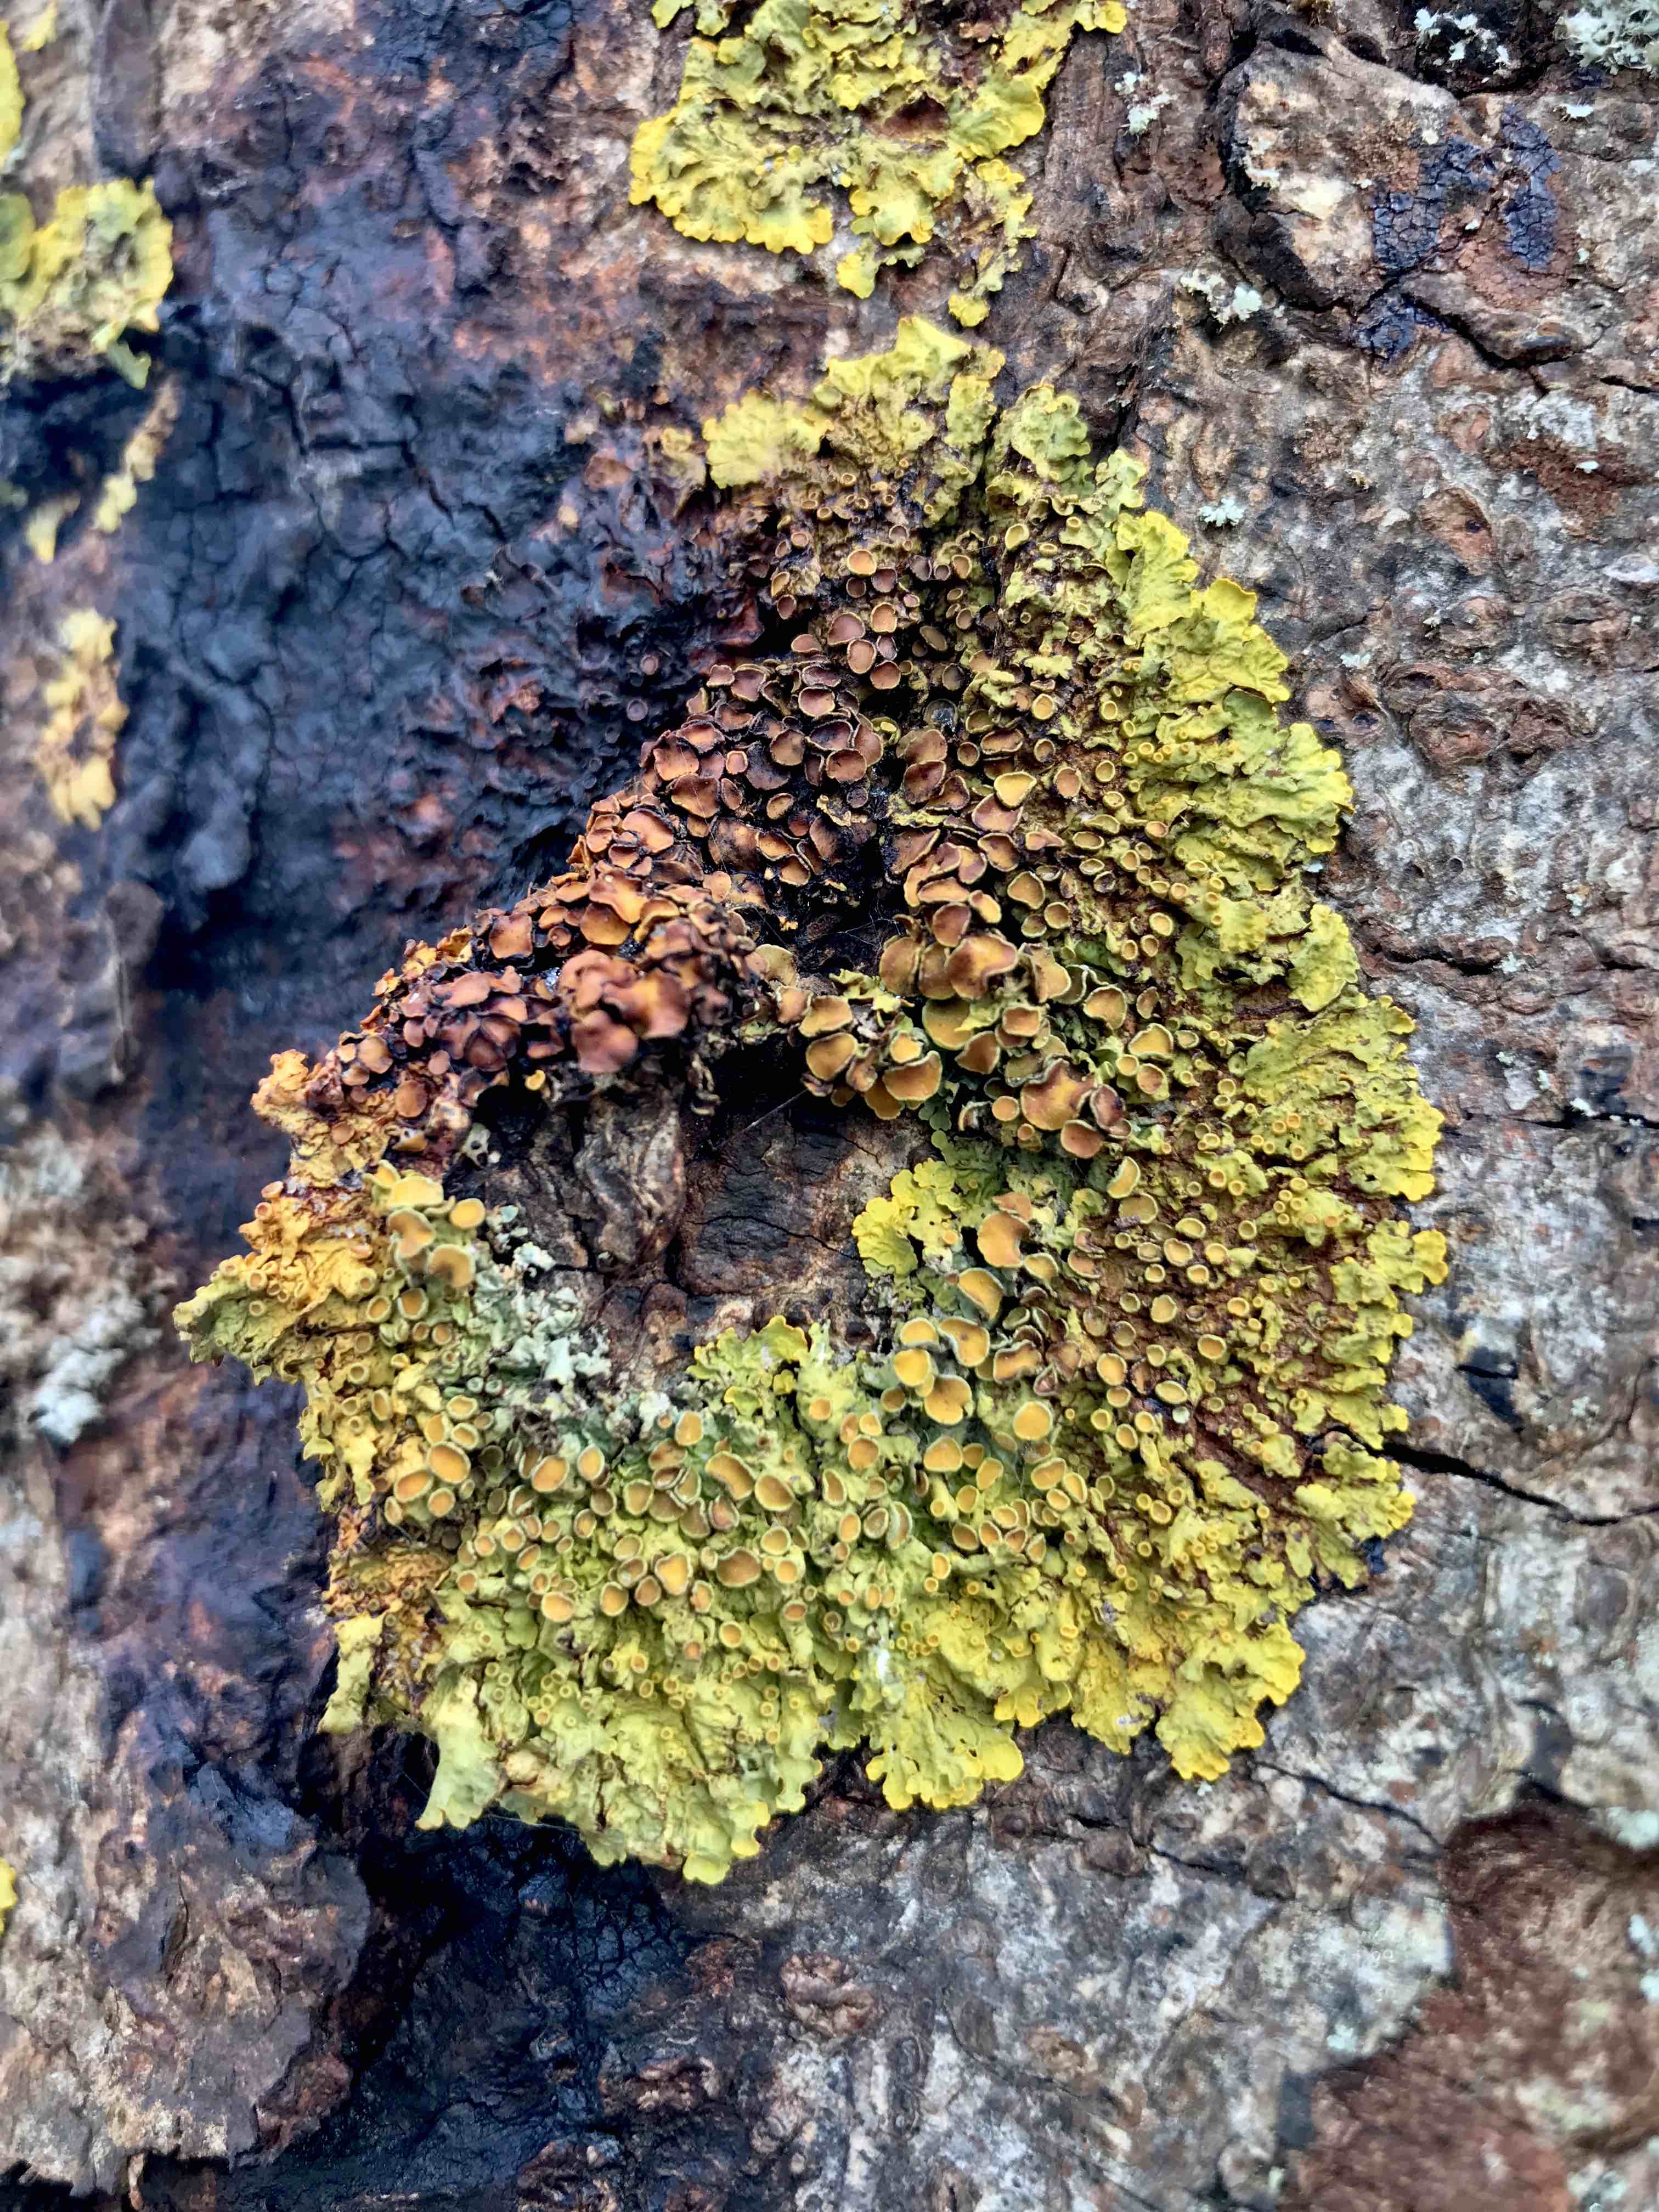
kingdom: Fungi
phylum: Ascomycota
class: Lecanoromycetes
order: Teloschistales
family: Teloschistaceae
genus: Xanthoria
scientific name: Xanthoria parietina
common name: almindelig væggelav
